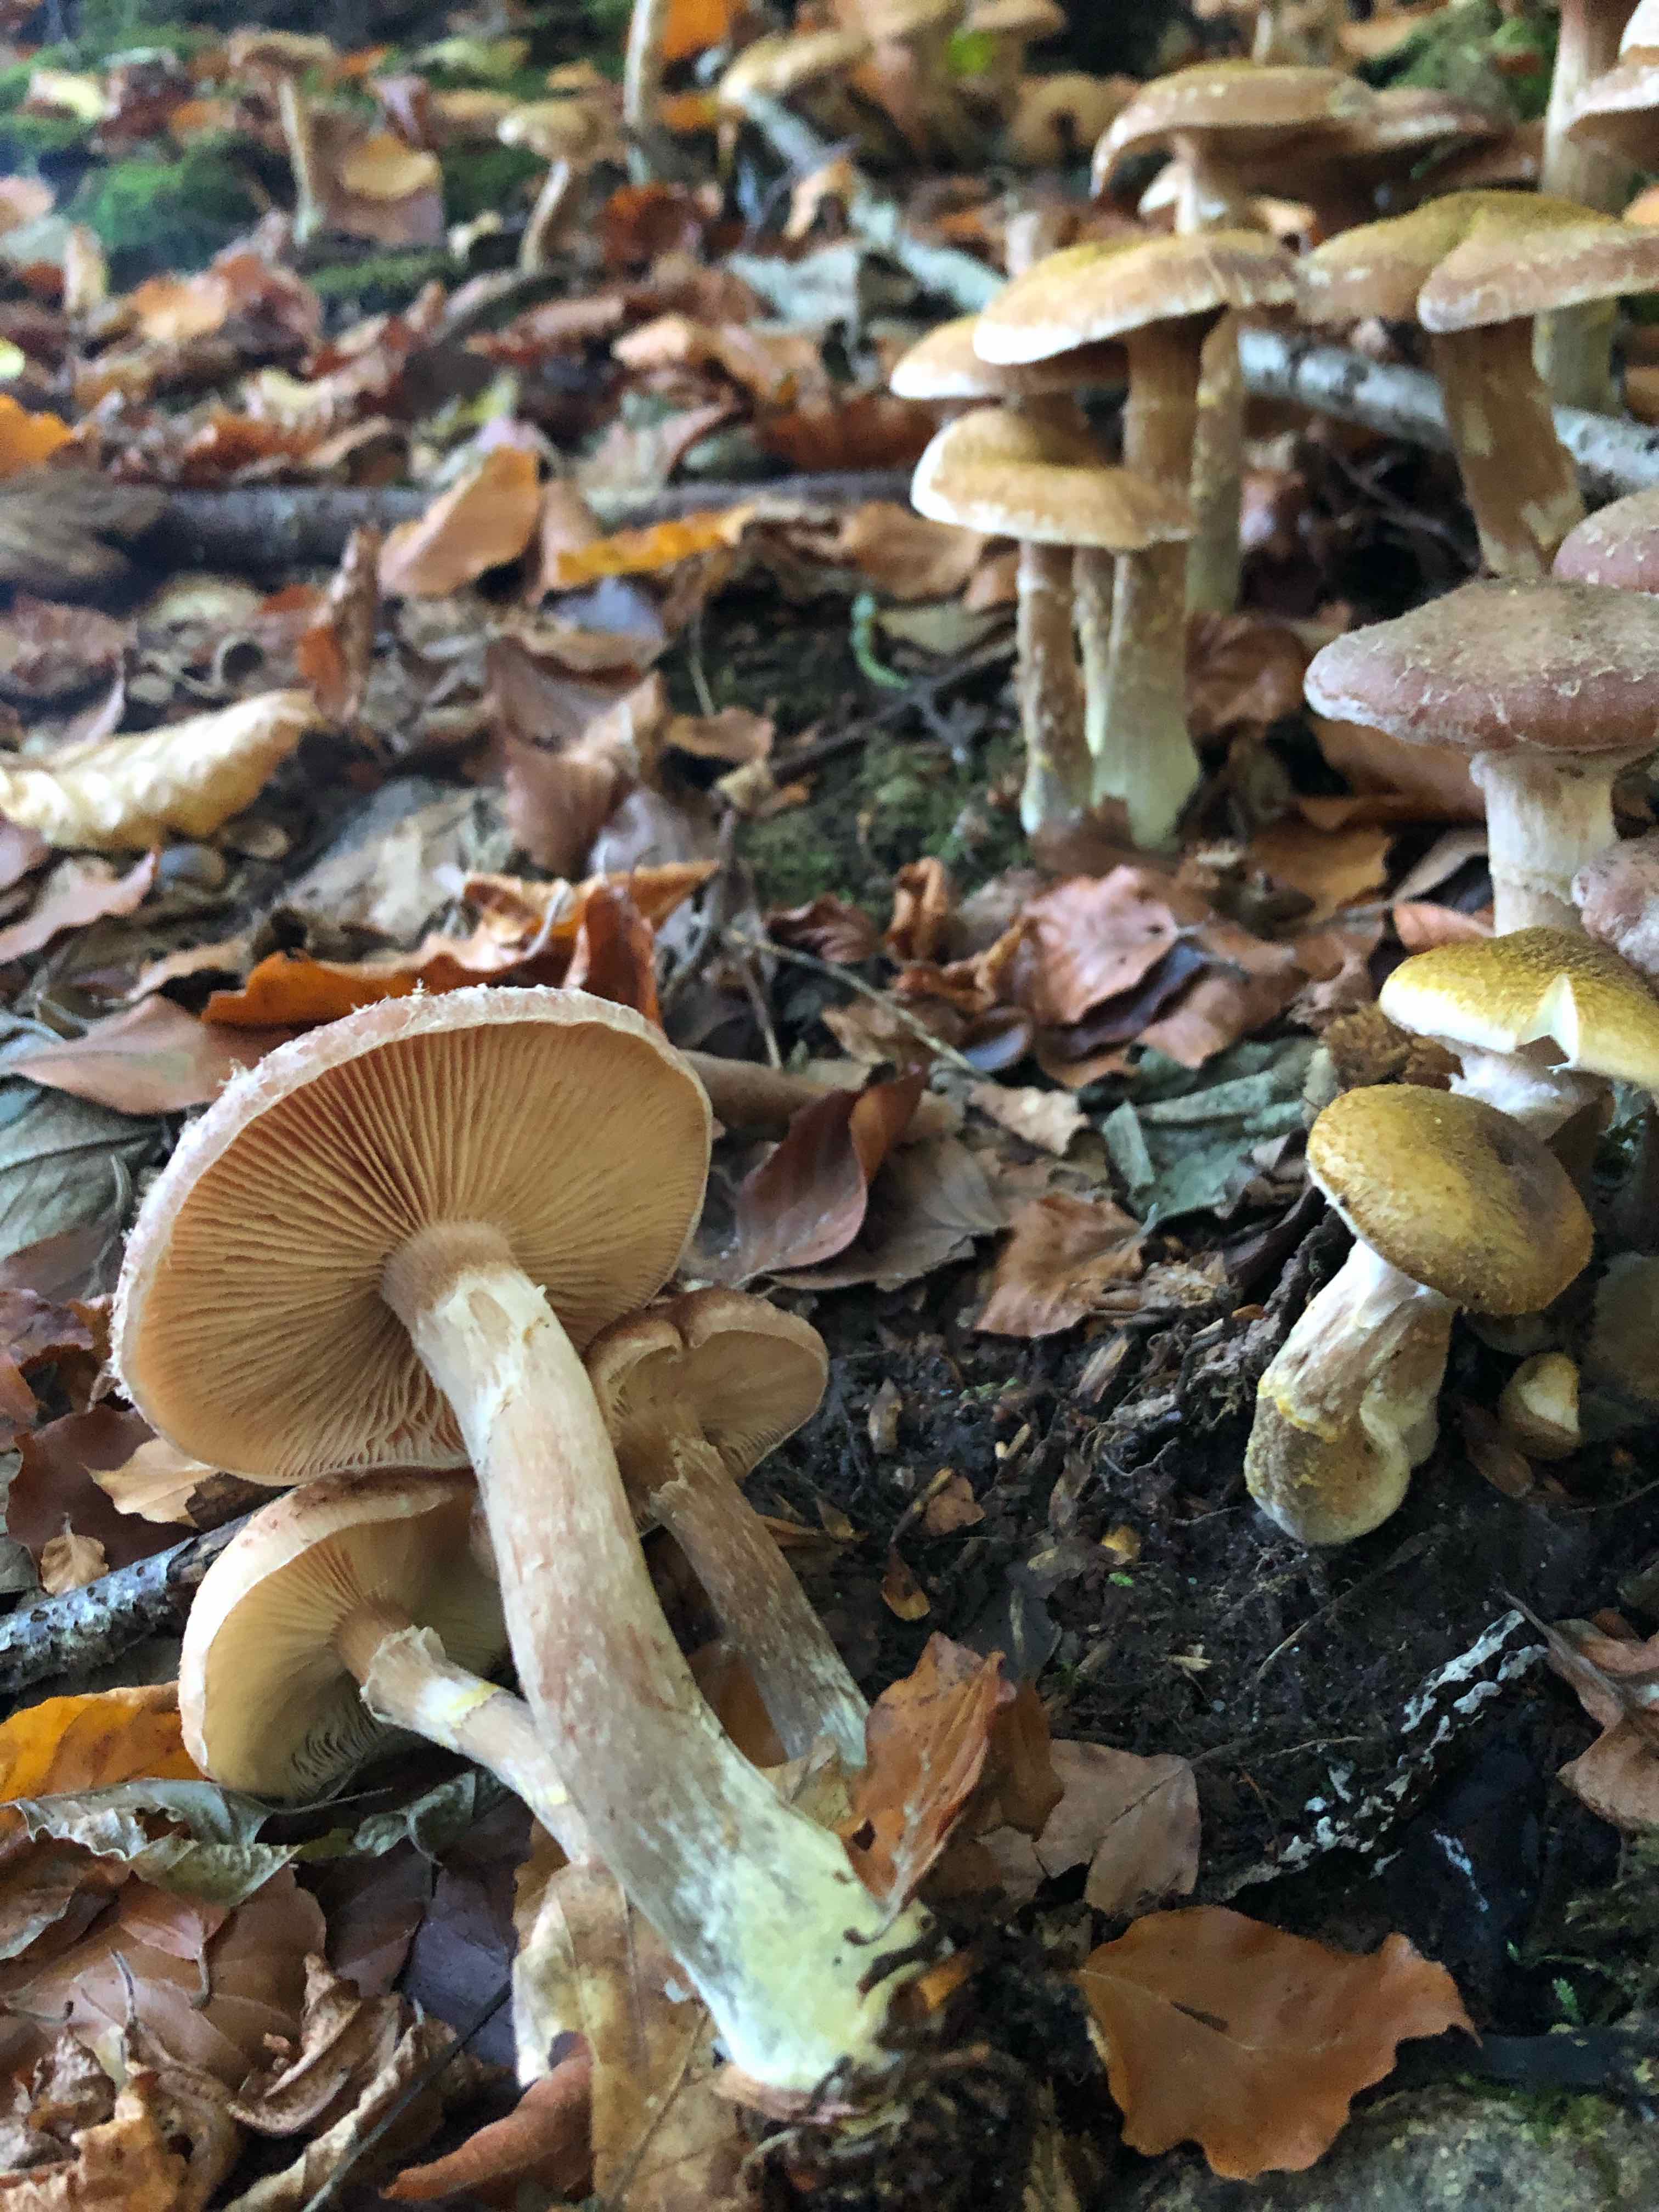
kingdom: Fungi
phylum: Basidiomycota
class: Agaricomycetes
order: Agaricales
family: Physalacriaceae
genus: Armillaria
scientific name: Armillaria lutea
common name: køllestokket honningsvamp
